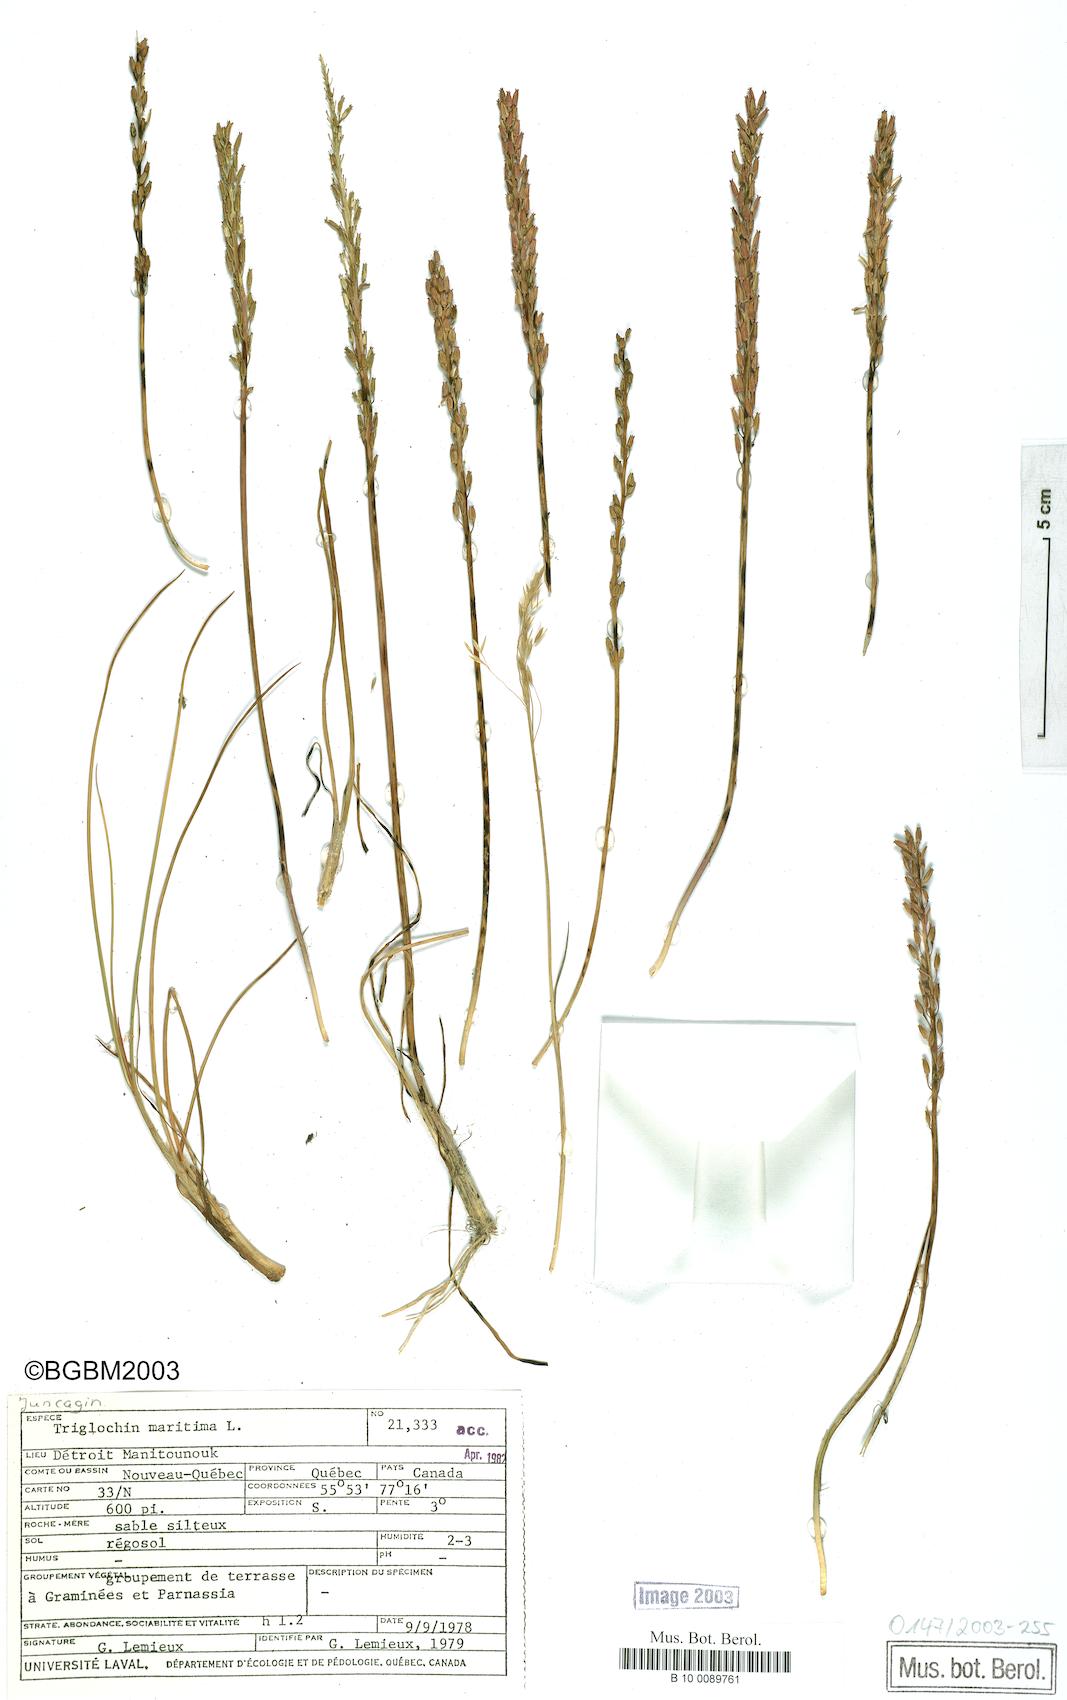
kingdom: Plantae
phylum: Tracheophyta
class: Liliopsida
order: Alismatales
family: Juncaginaceae
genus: Triglochin
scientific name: Triglochin maritima
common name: Sea arrowgrass
